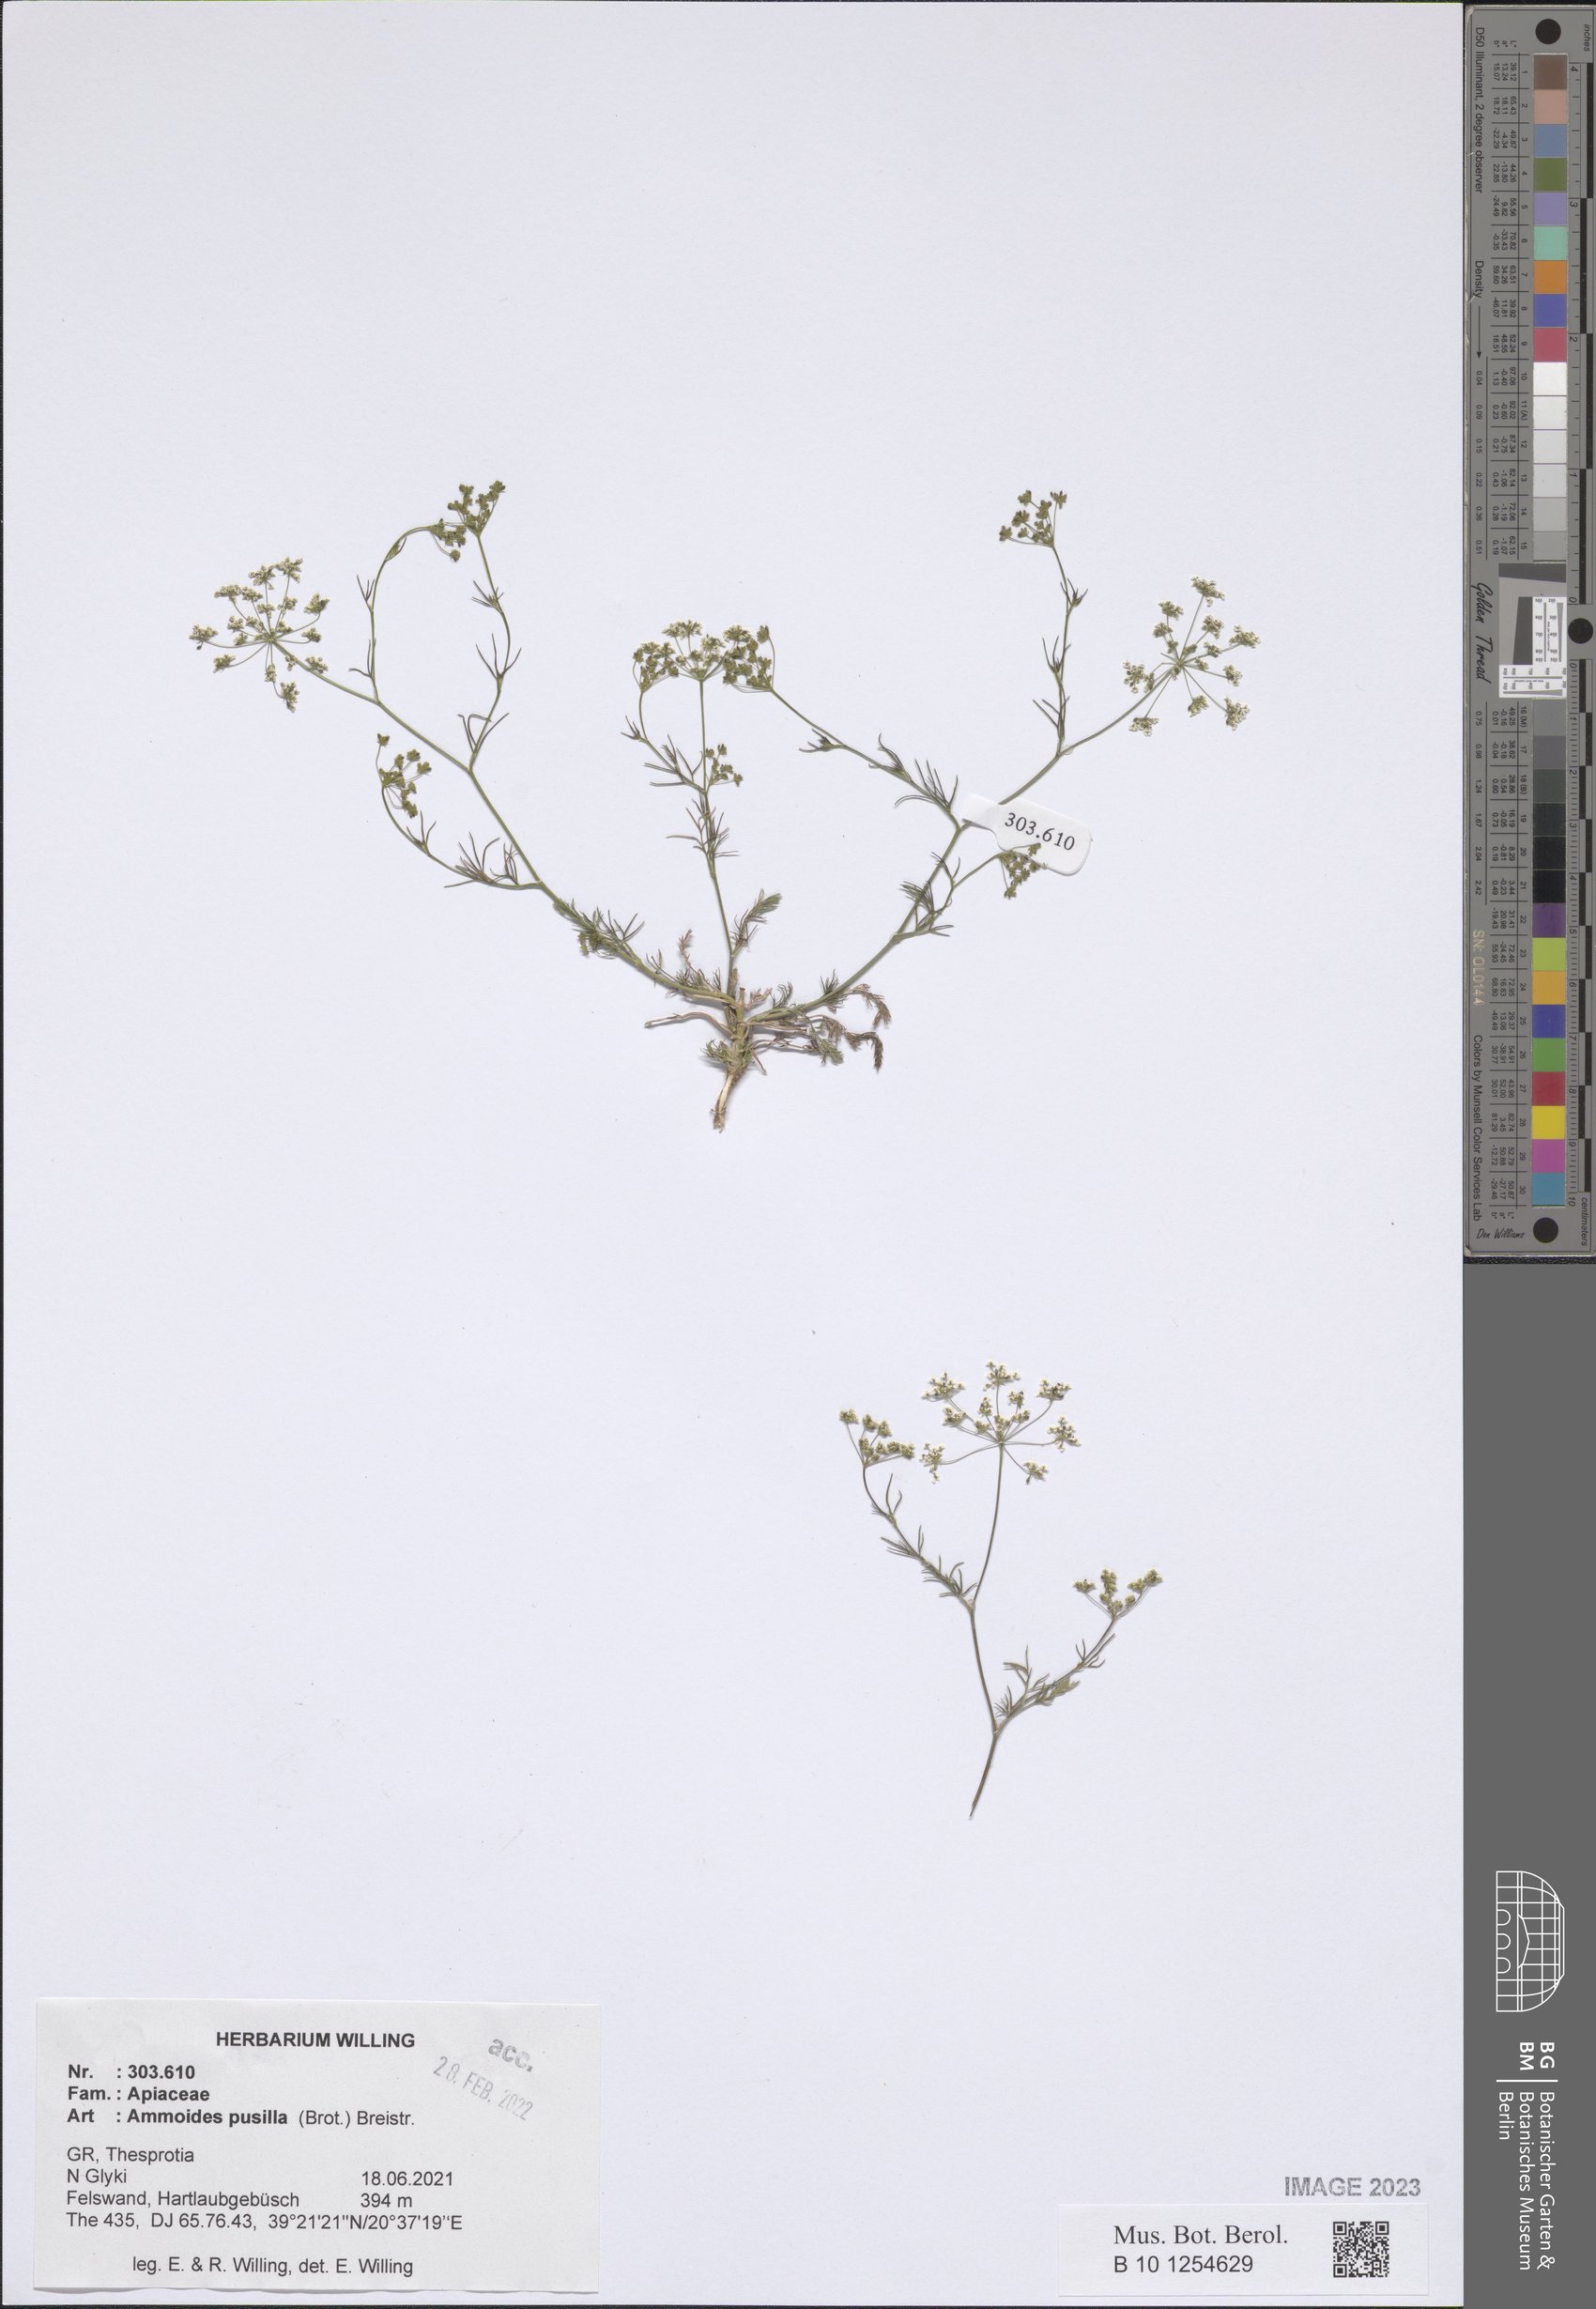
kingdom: Plantae
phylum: Tracheophyta
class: Magnoliopsida
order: Apiales
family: Apiaceae
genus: Ammoides
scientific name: Ammoides pusilla
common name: Cerfolium
